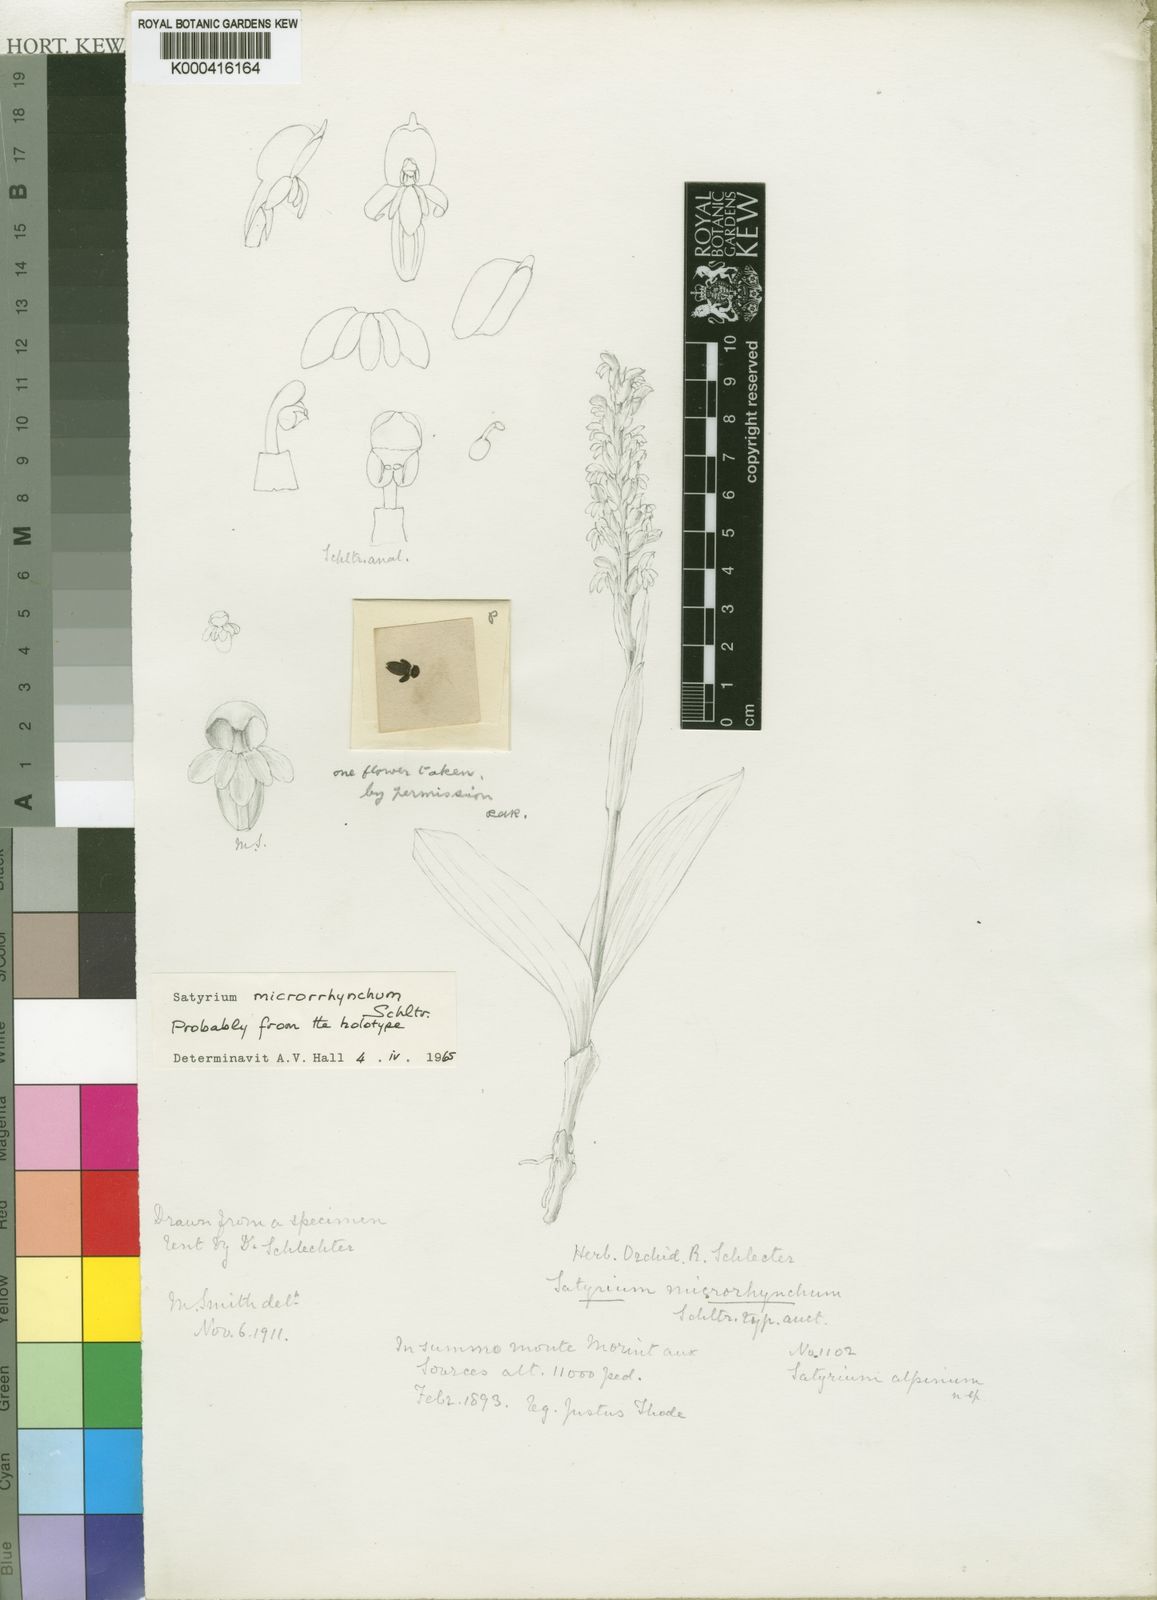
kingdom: Plantae
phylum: Tracheophyta
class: Liliopsida
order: Asparagales
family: Orchidaceae
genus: Satyrium
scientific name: Satyrium microrrhynchum
